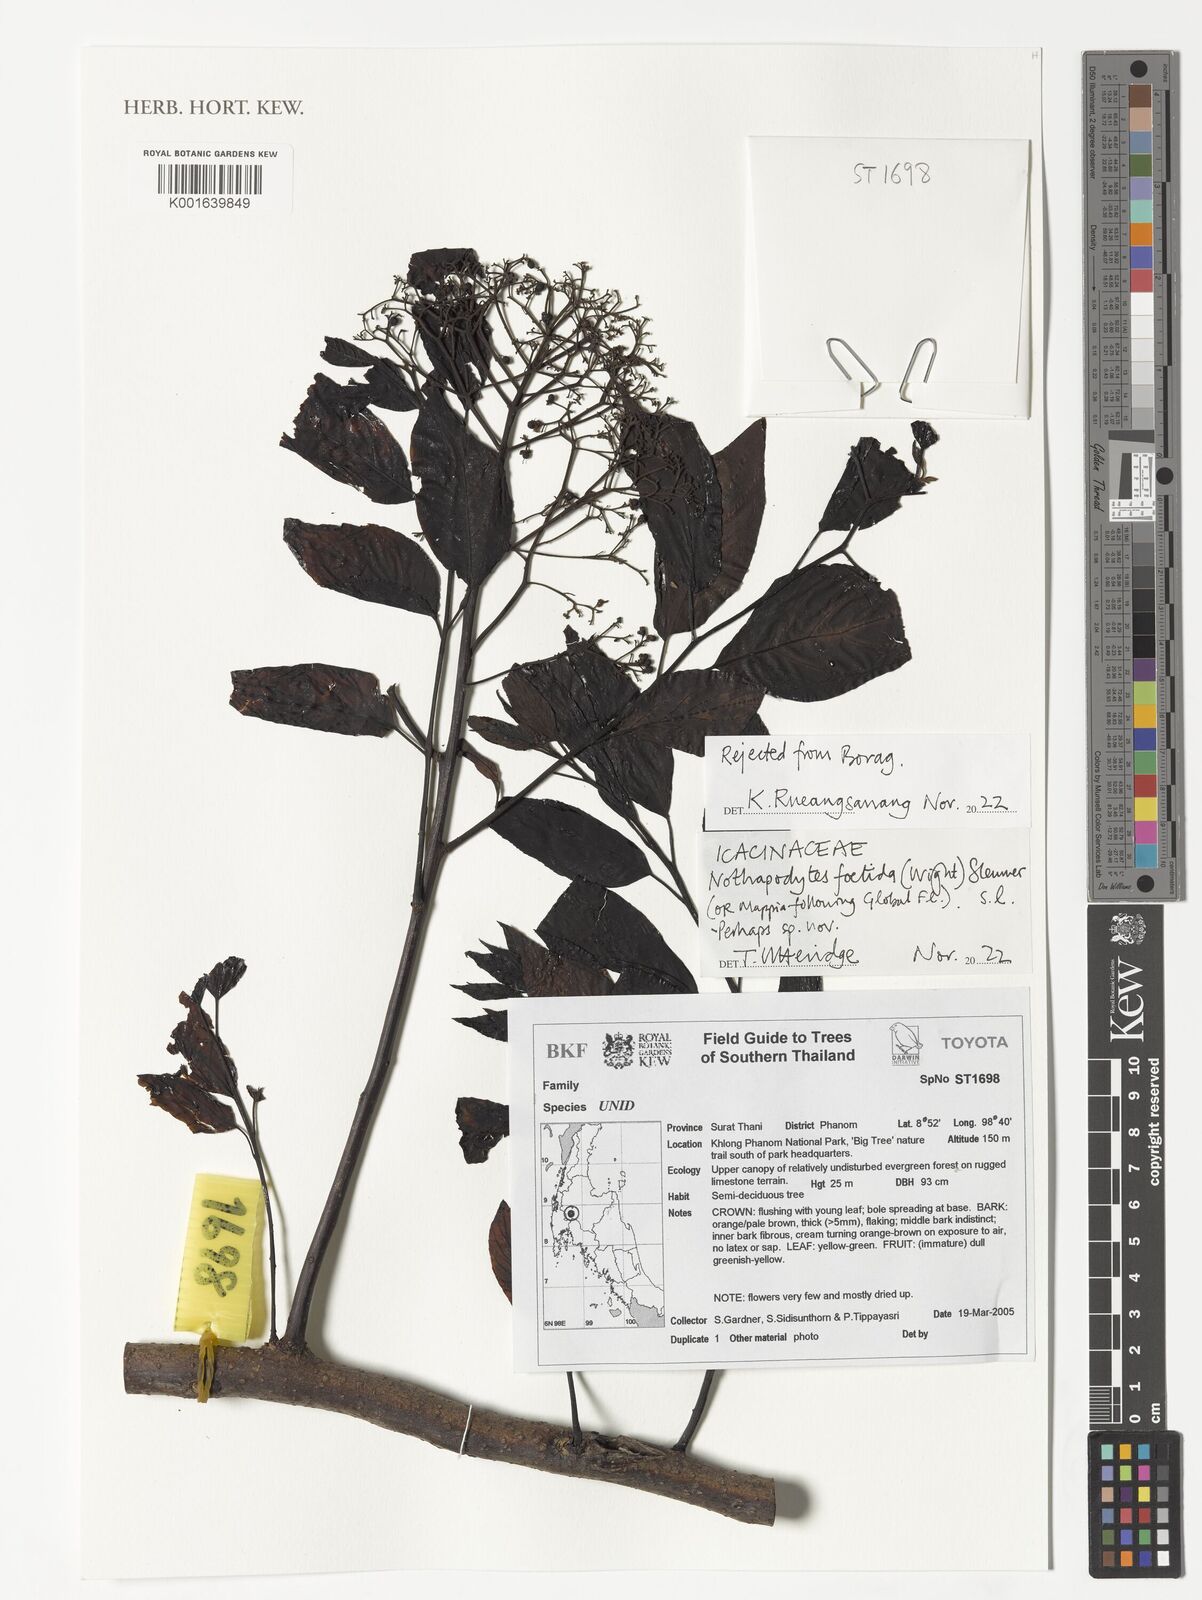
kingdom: Plantae
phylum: Tracheophyta
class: Magnoliopsida
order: Icacinales
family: Icacinaceae
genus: Nothapodytes
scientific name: Nothapodytes nimmoniana
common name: Nothapodytes
